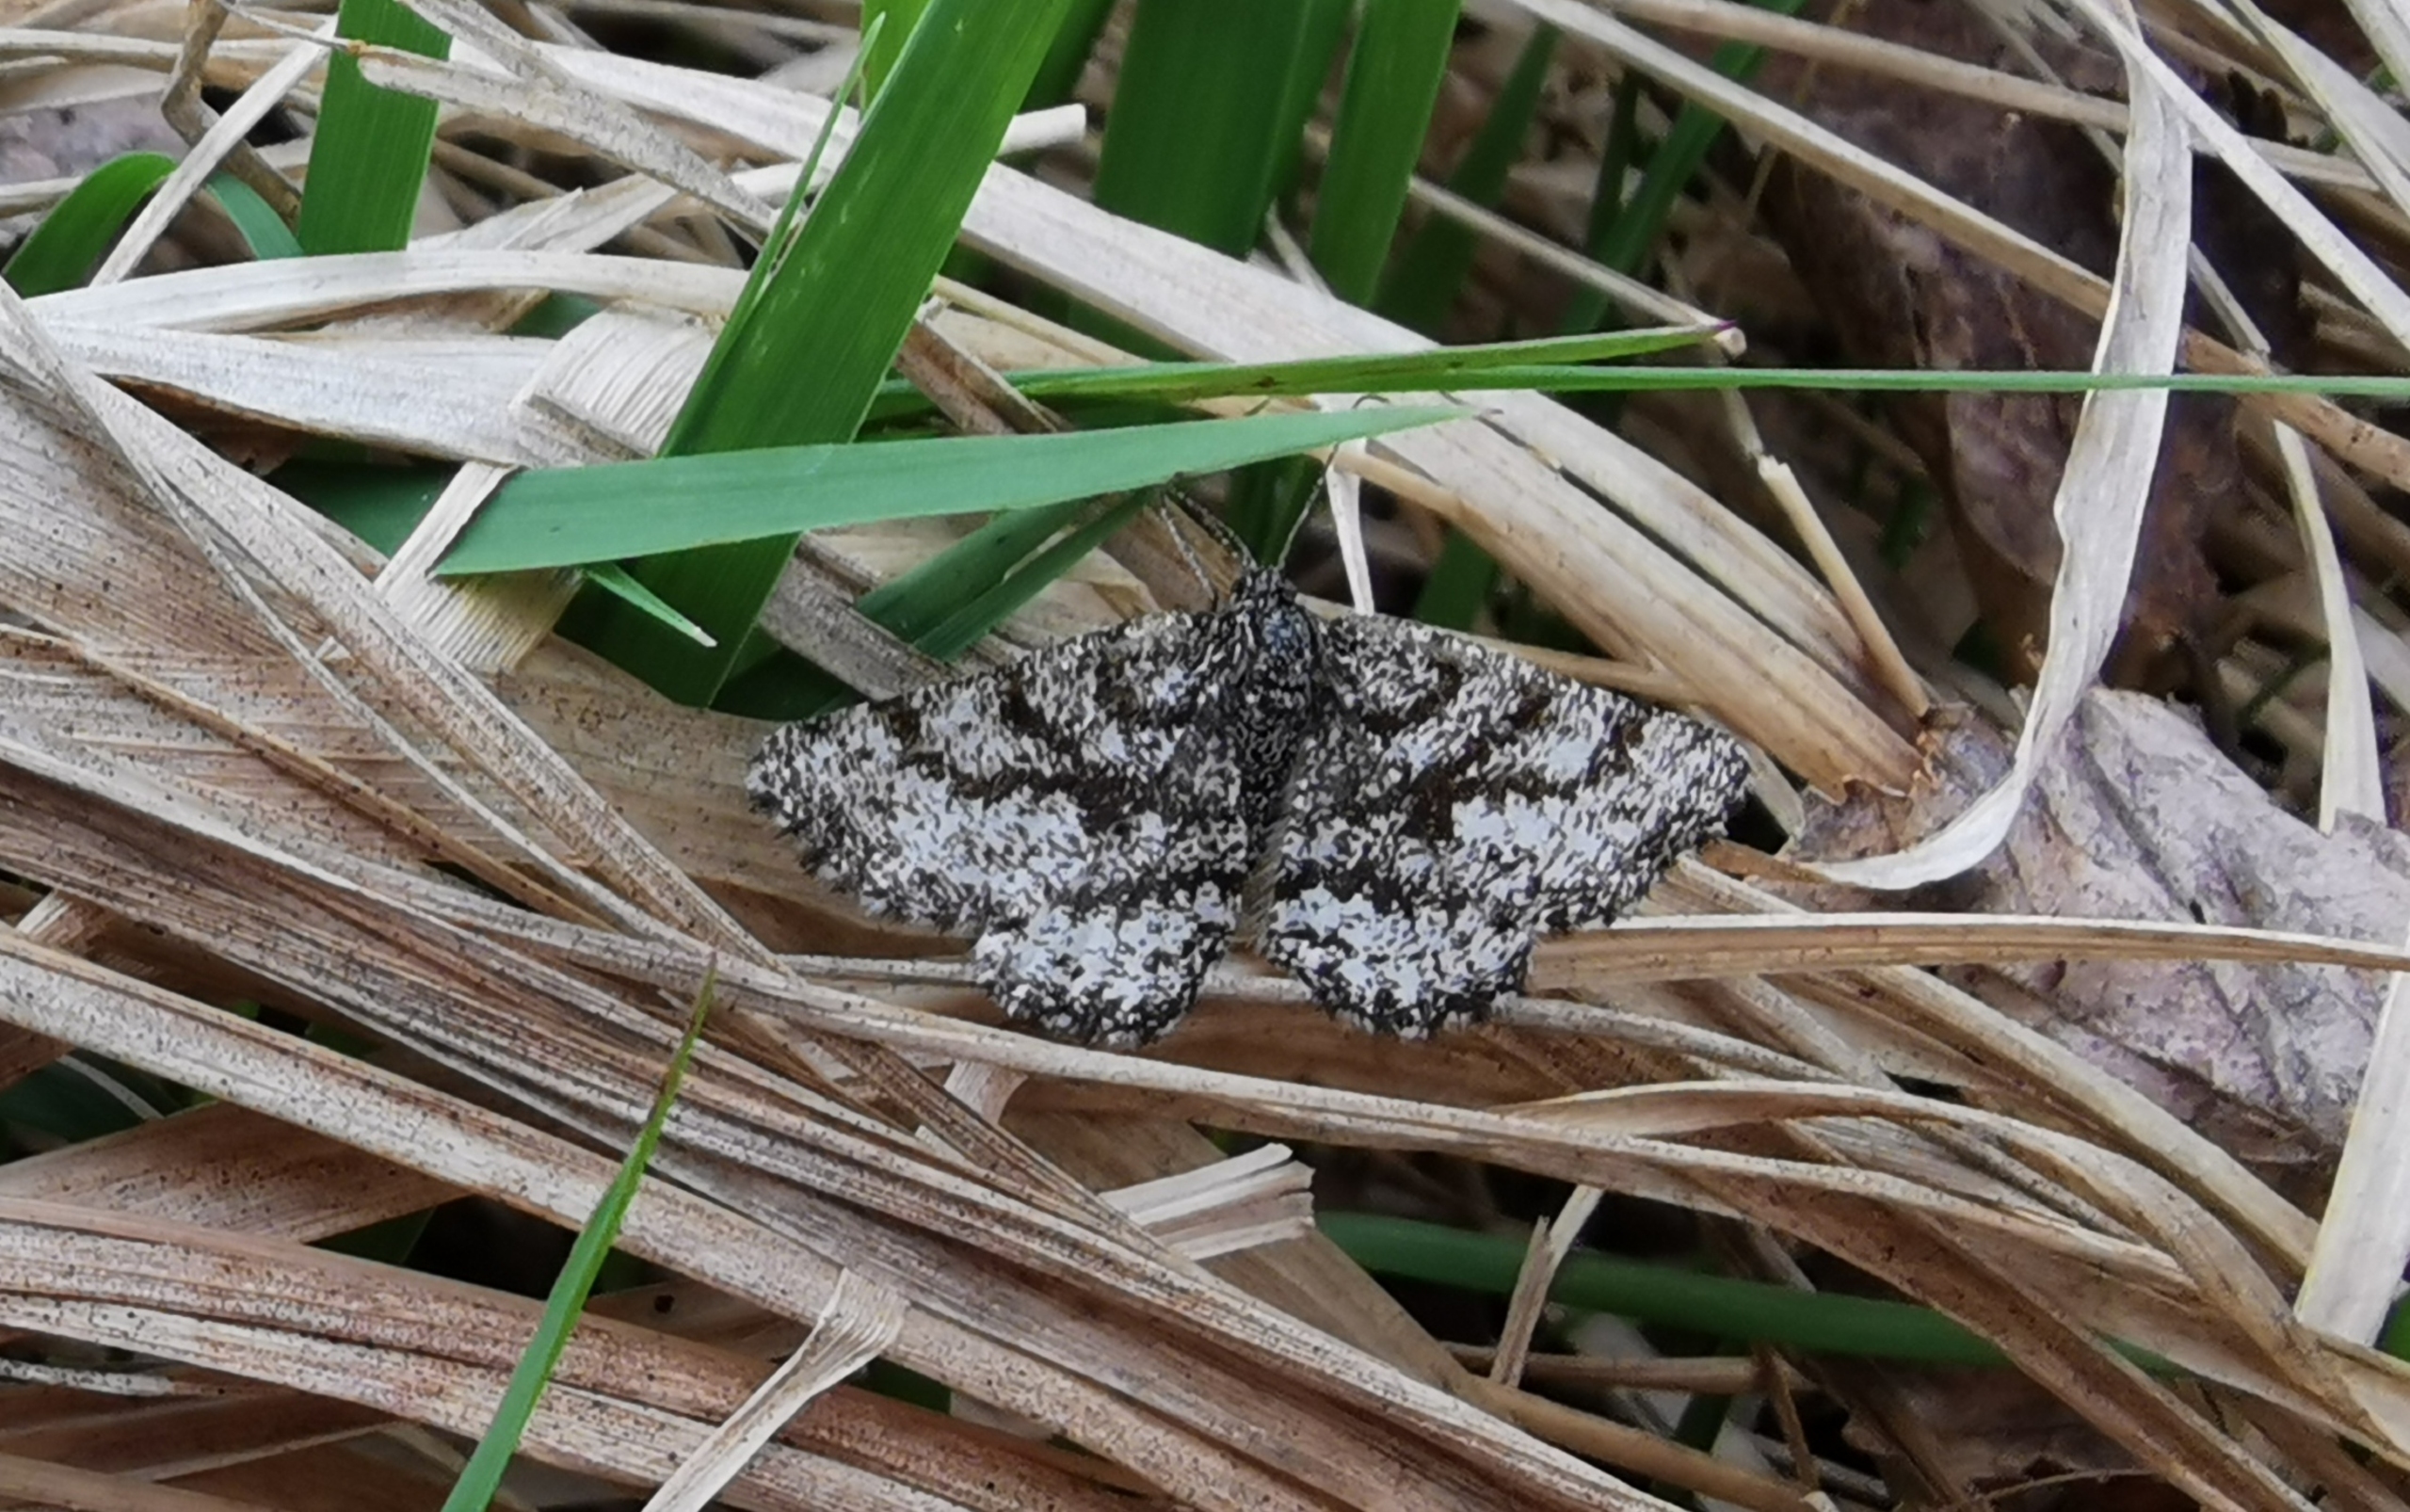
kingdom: Animalia
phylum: Arthropoda
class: Insecta
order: Lepidoptera
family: Geometridae
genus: Ematurga
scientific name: Ematurga atomaria
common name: Lyngmåler
